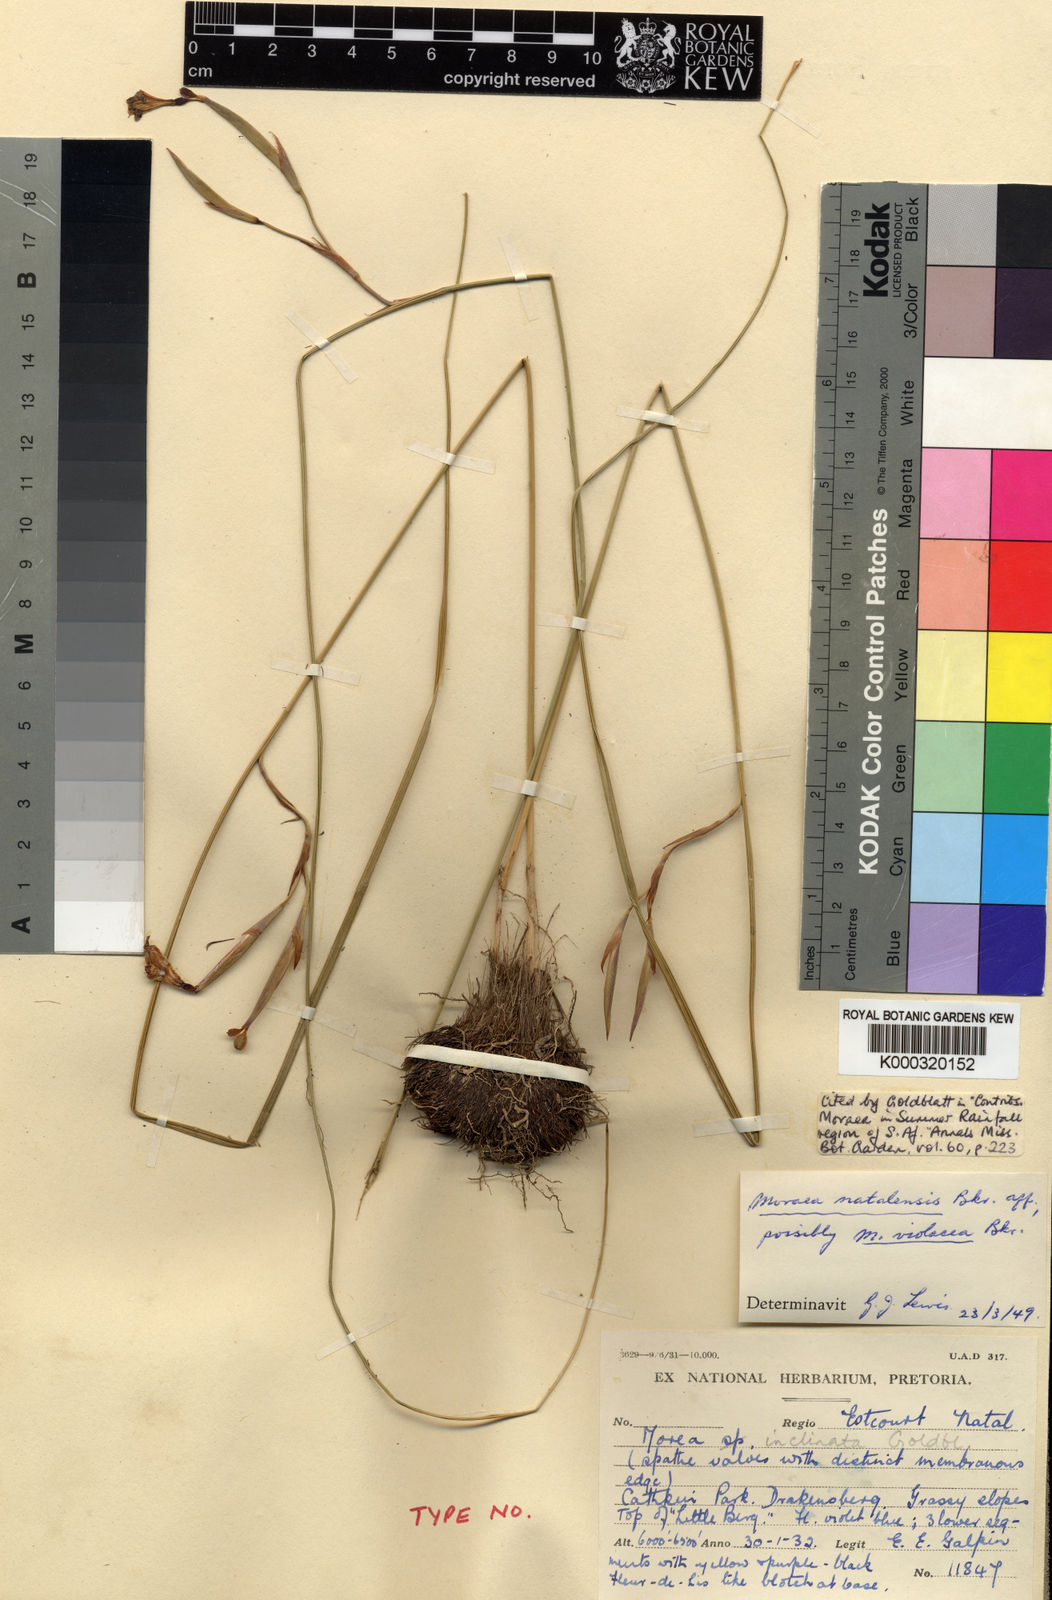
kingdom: Plantae
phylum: Tracheophyta
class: Liliopsida
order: Asparagales
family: Iridaceae
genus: Moraea
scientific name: Moraea inclinata
